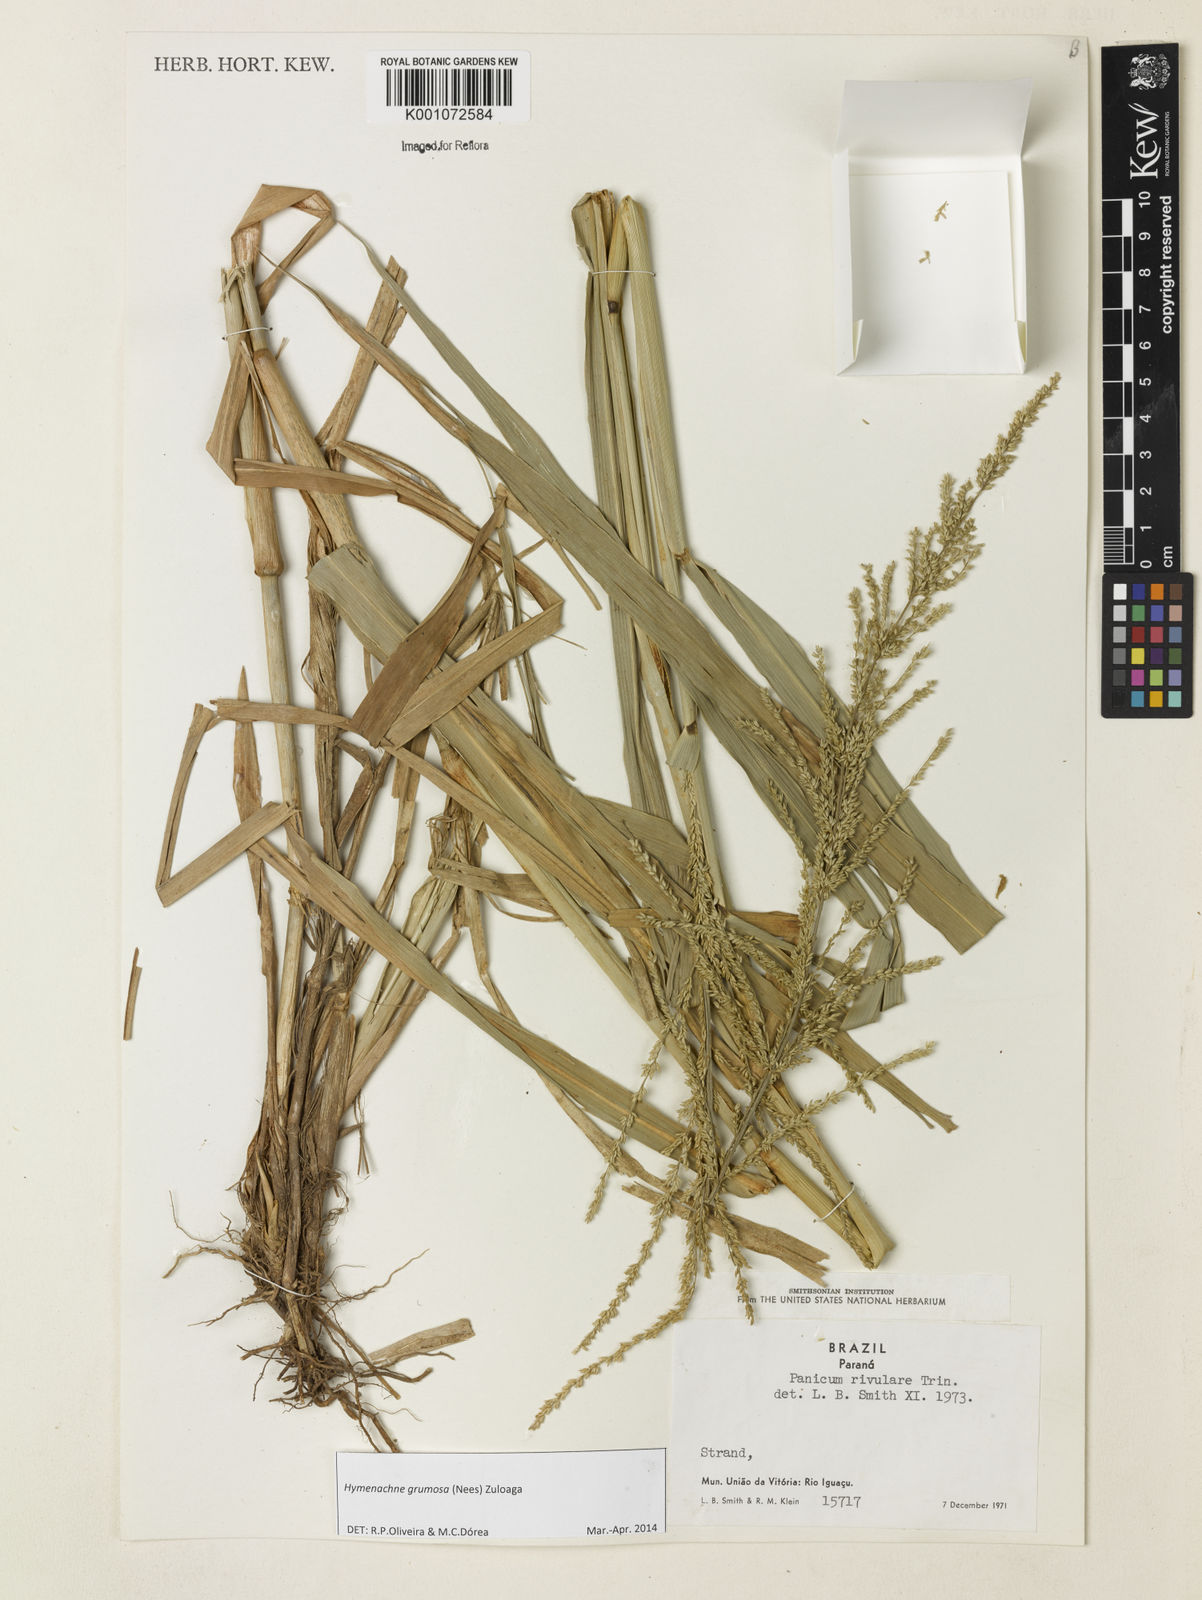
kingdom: Plantae
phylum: Tracheophyta
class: Liliopsida
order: Poales
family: Poaceae
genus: Hymenachne
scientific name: Hymenachne grumosa
